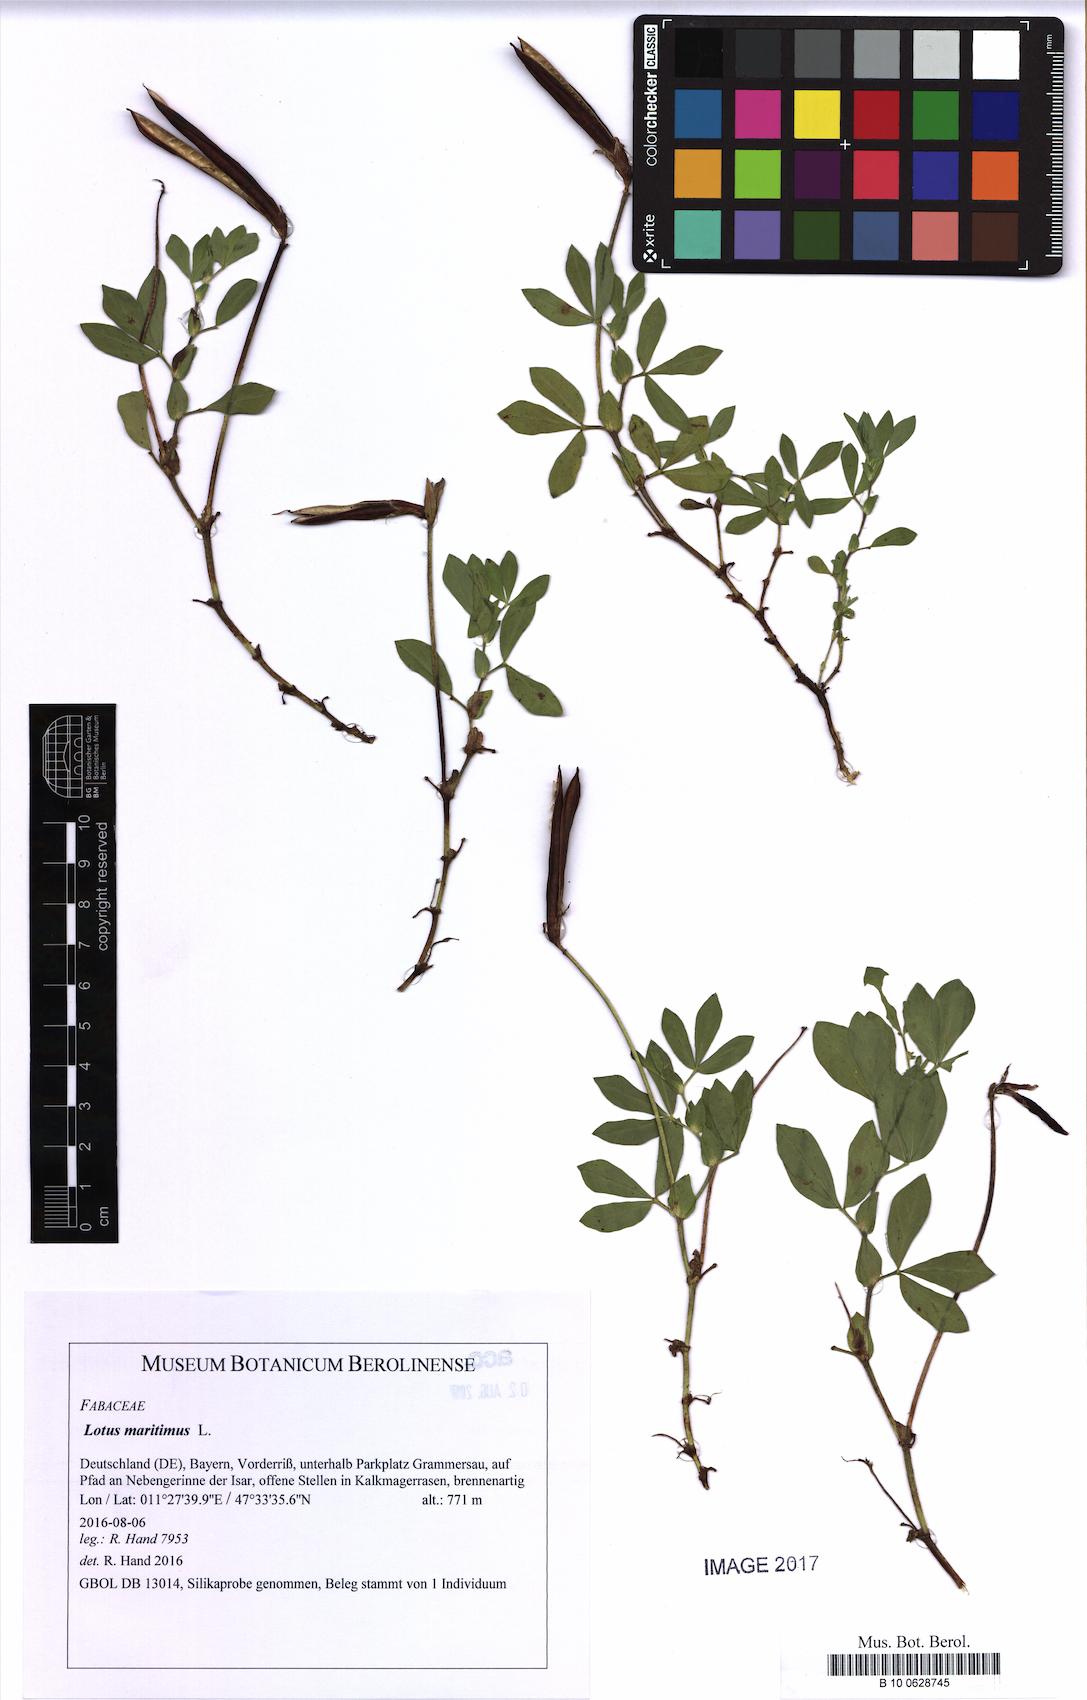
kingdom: Plantae
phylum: Tracheophyta
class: Magnoliopsida
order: Fabales
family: Fabaceae
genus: Lotus
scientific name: Lotus maritimus
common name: Dragon's-teeth
